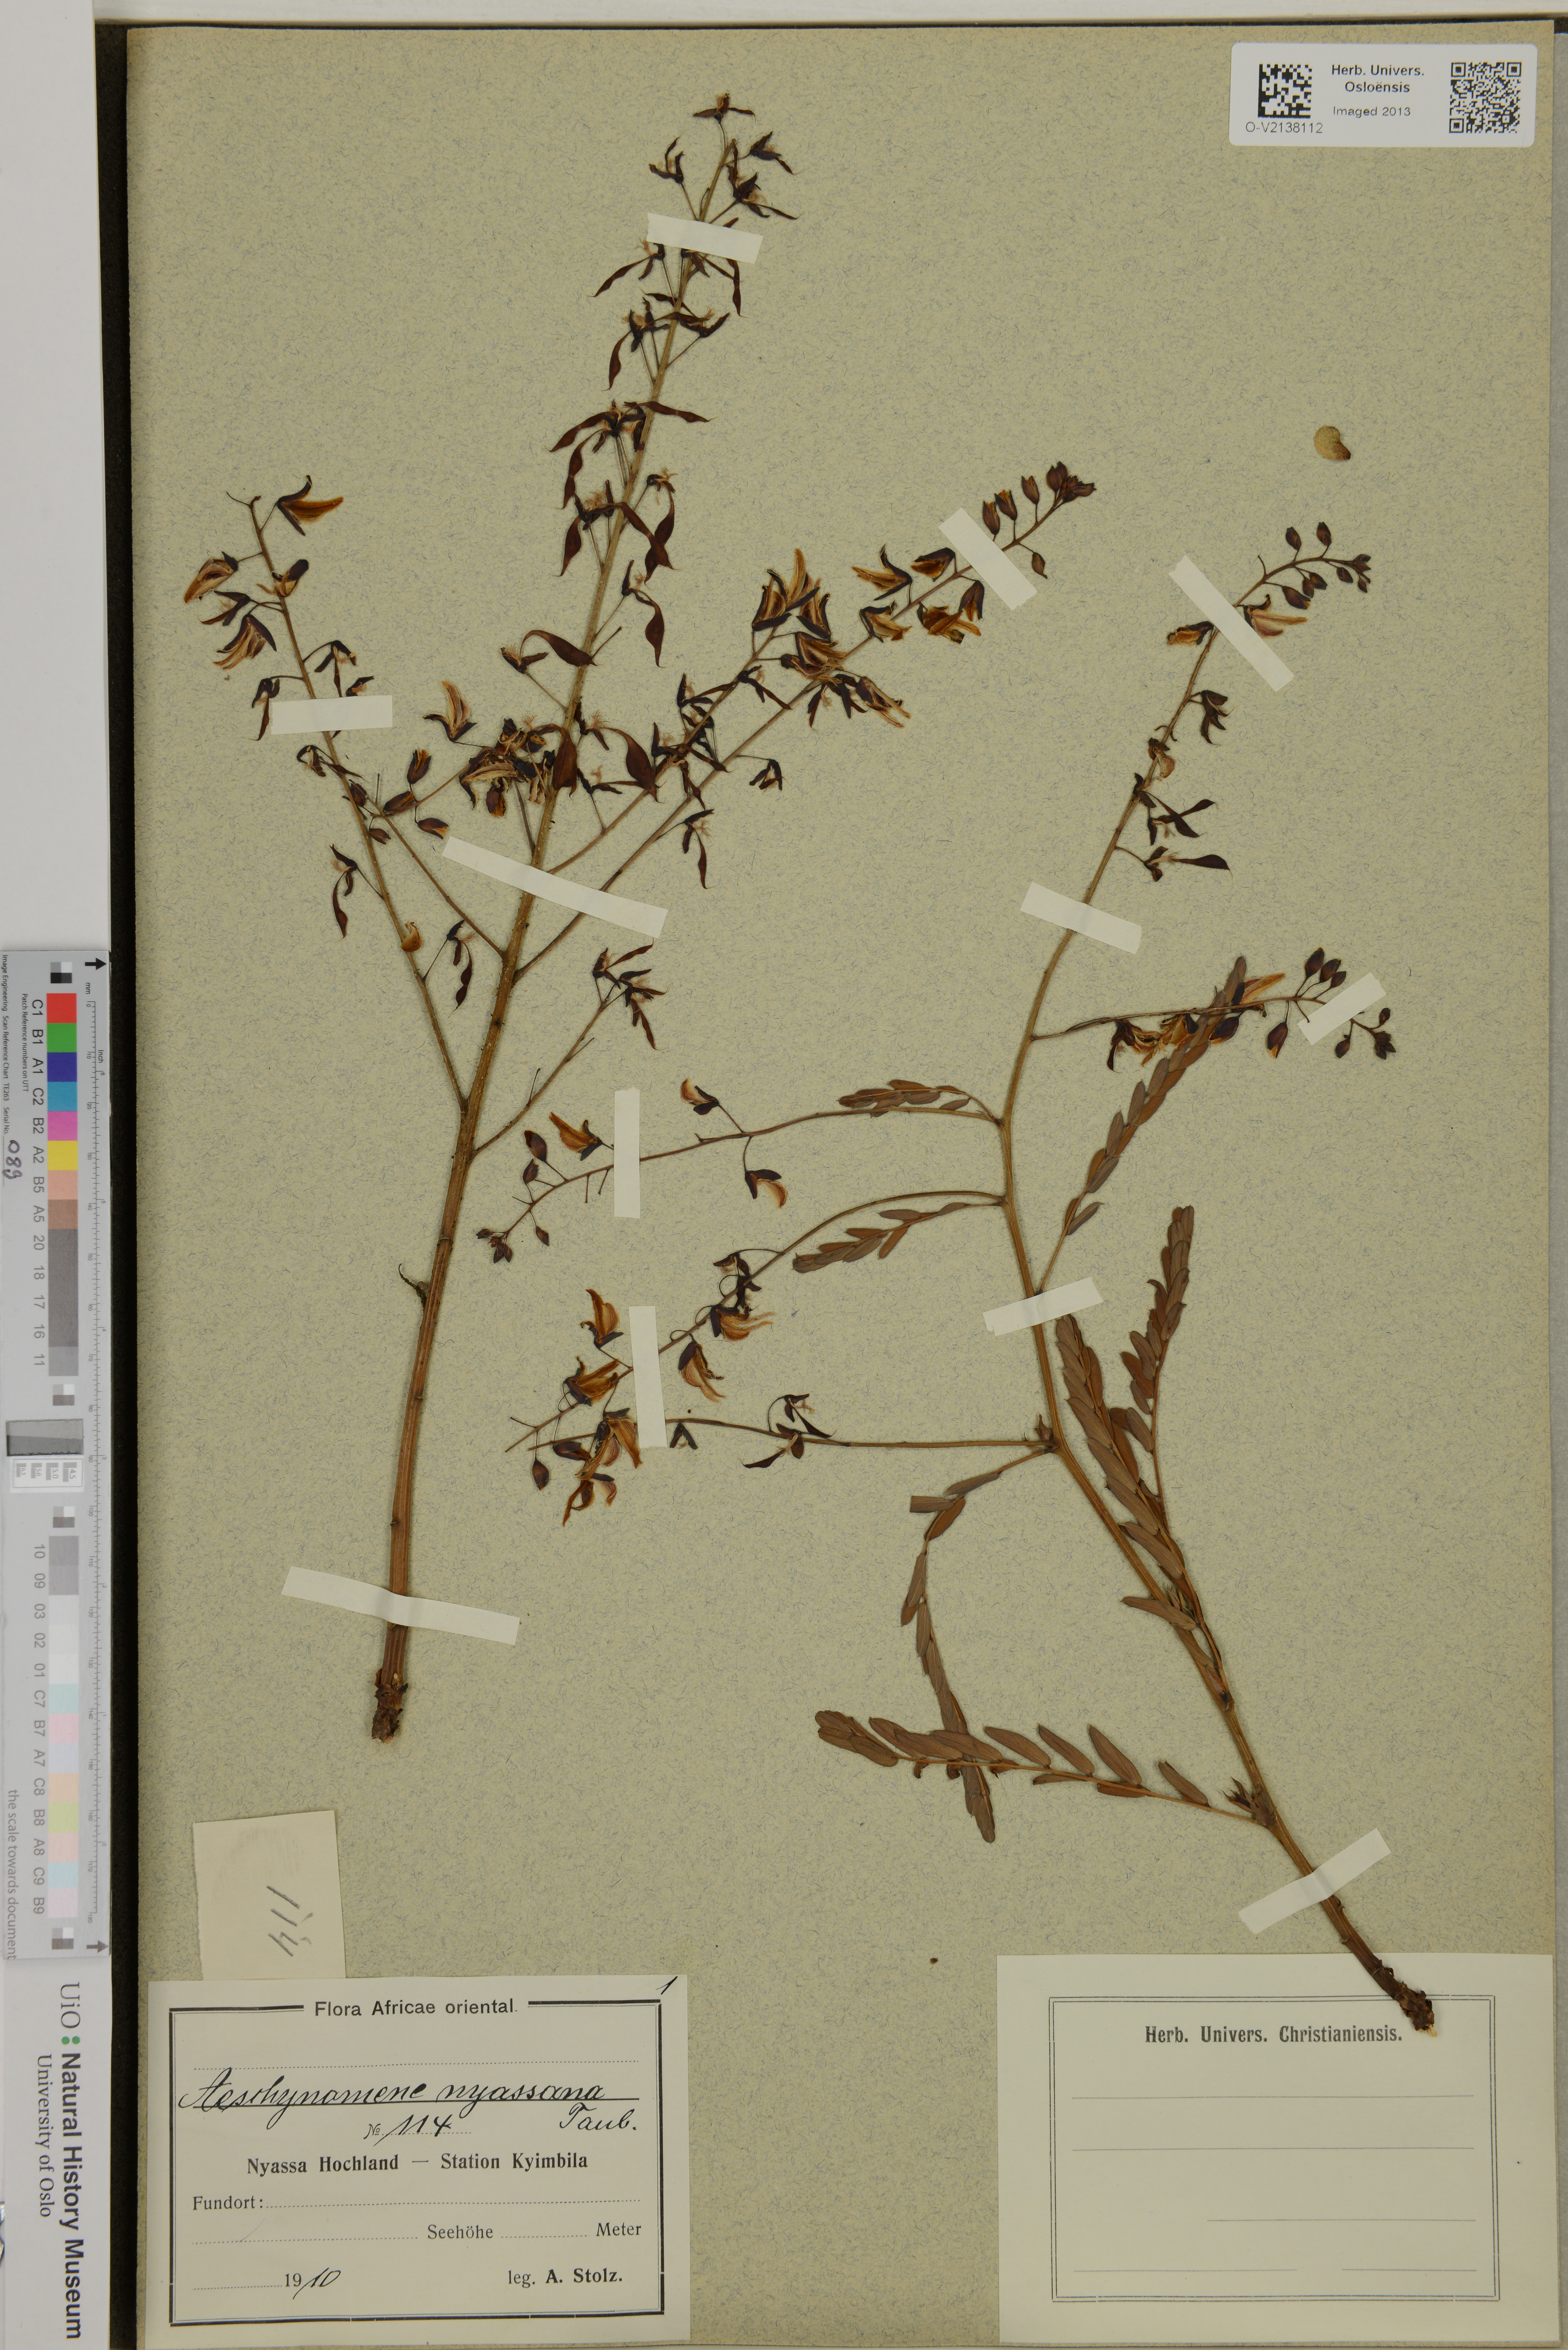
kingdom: Plantae
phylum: Tracheophyta
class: Magnoliopsida
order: Fabales
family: Fabaceae
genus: Aeschynomene
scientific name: Aeschynomene nyassana
